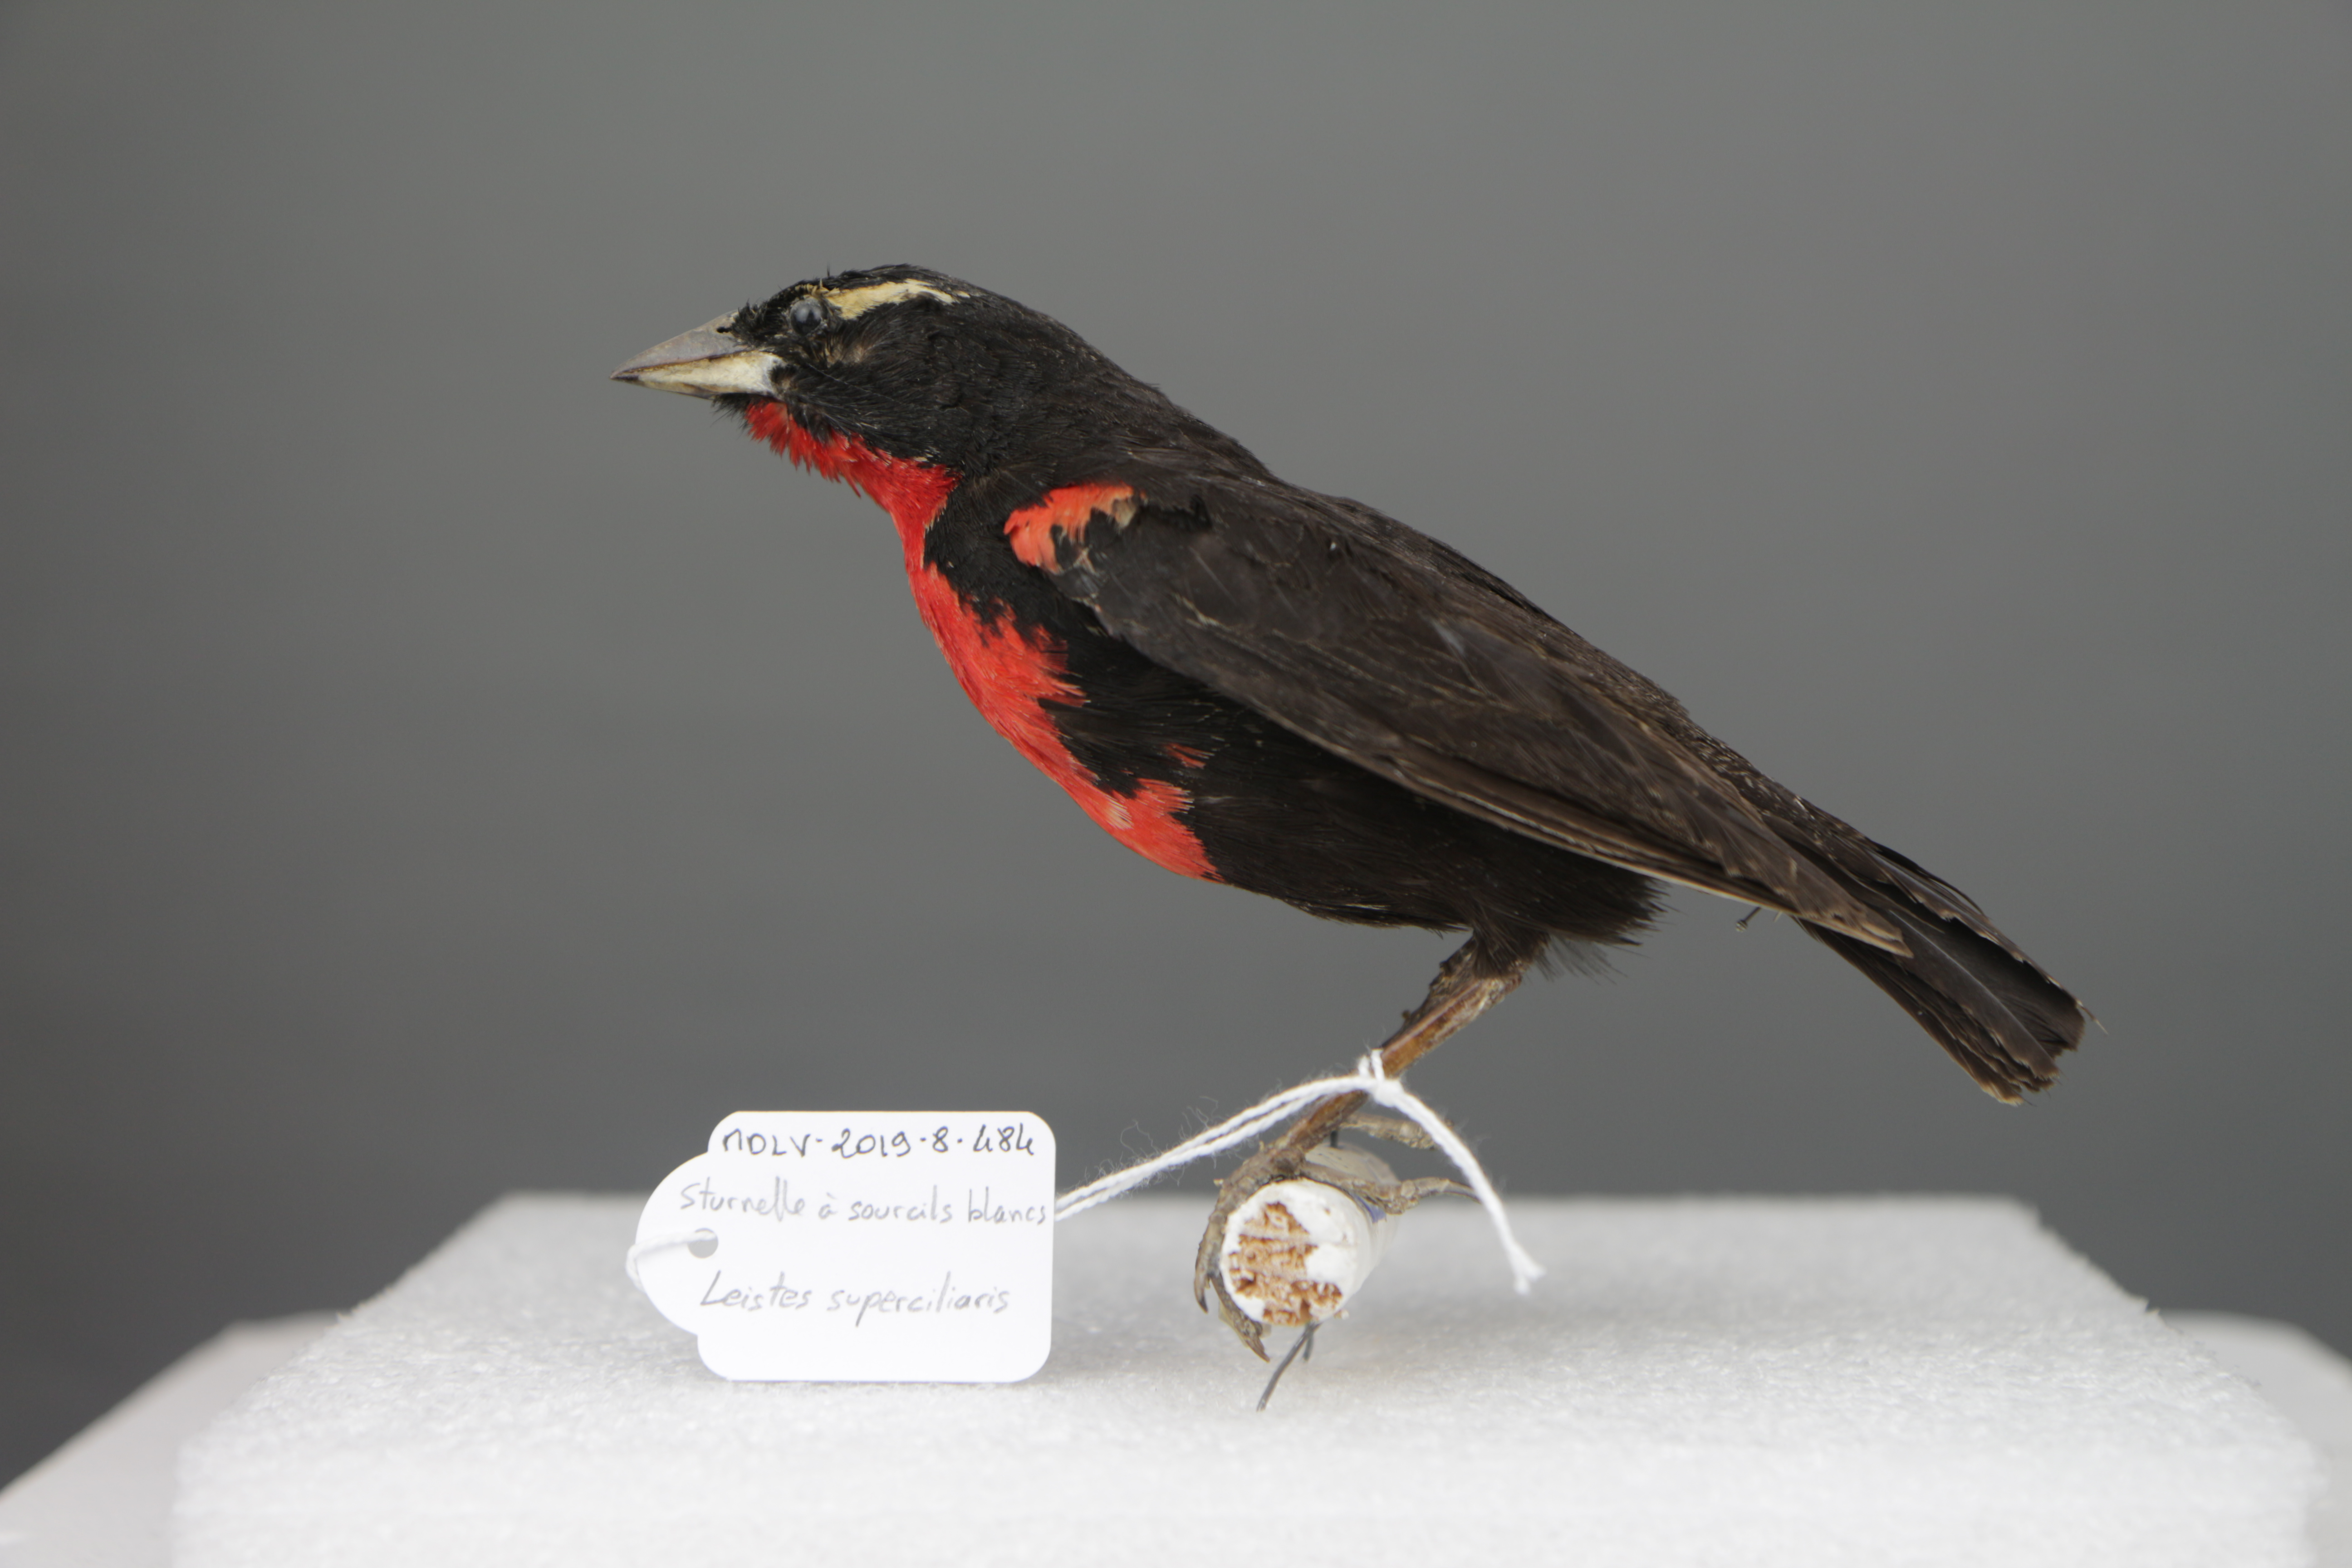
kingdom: Animalia
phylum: Chordata
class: Aves
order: Passeriformes
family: Icteridae
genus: Sturnella
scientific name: Sturnella superciliaris
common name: White-browed blackbird
